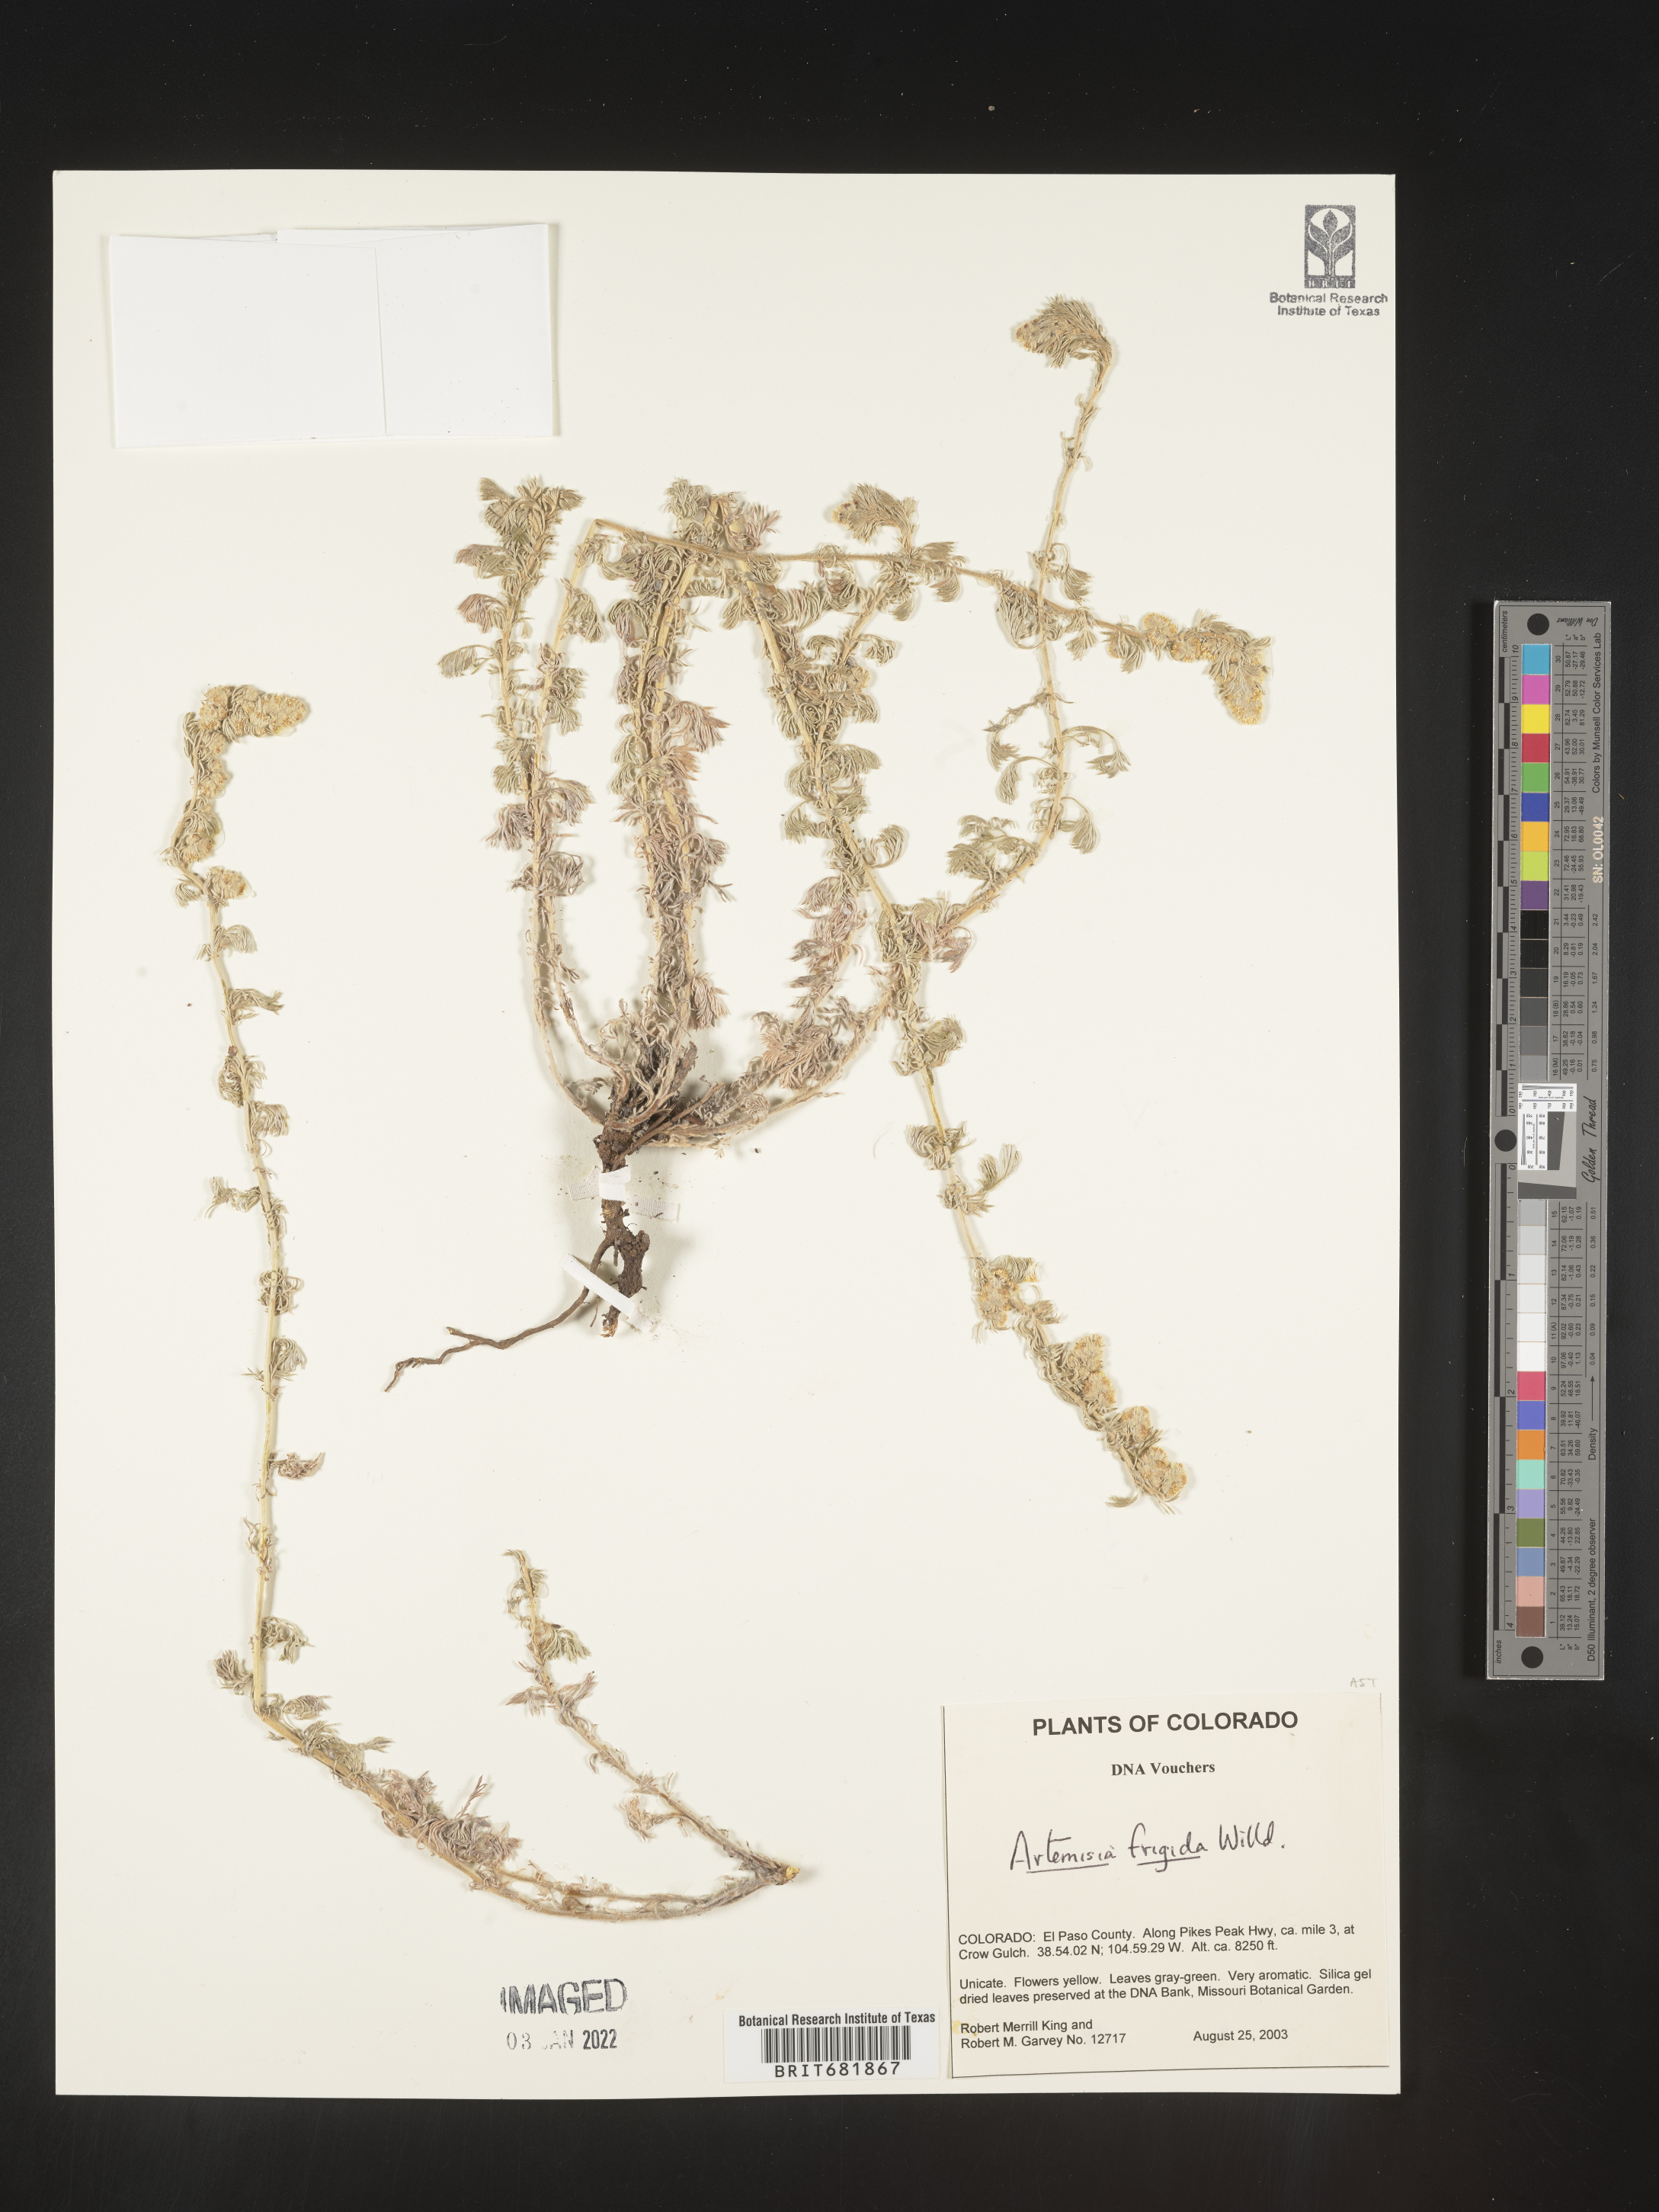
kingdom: Plantae
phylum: Tracheophyta
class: Magnoliopsida
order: Asterales
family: Asteraceae
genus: Artemisia
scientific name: Artemisia frigida
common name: Prairie sagewort
